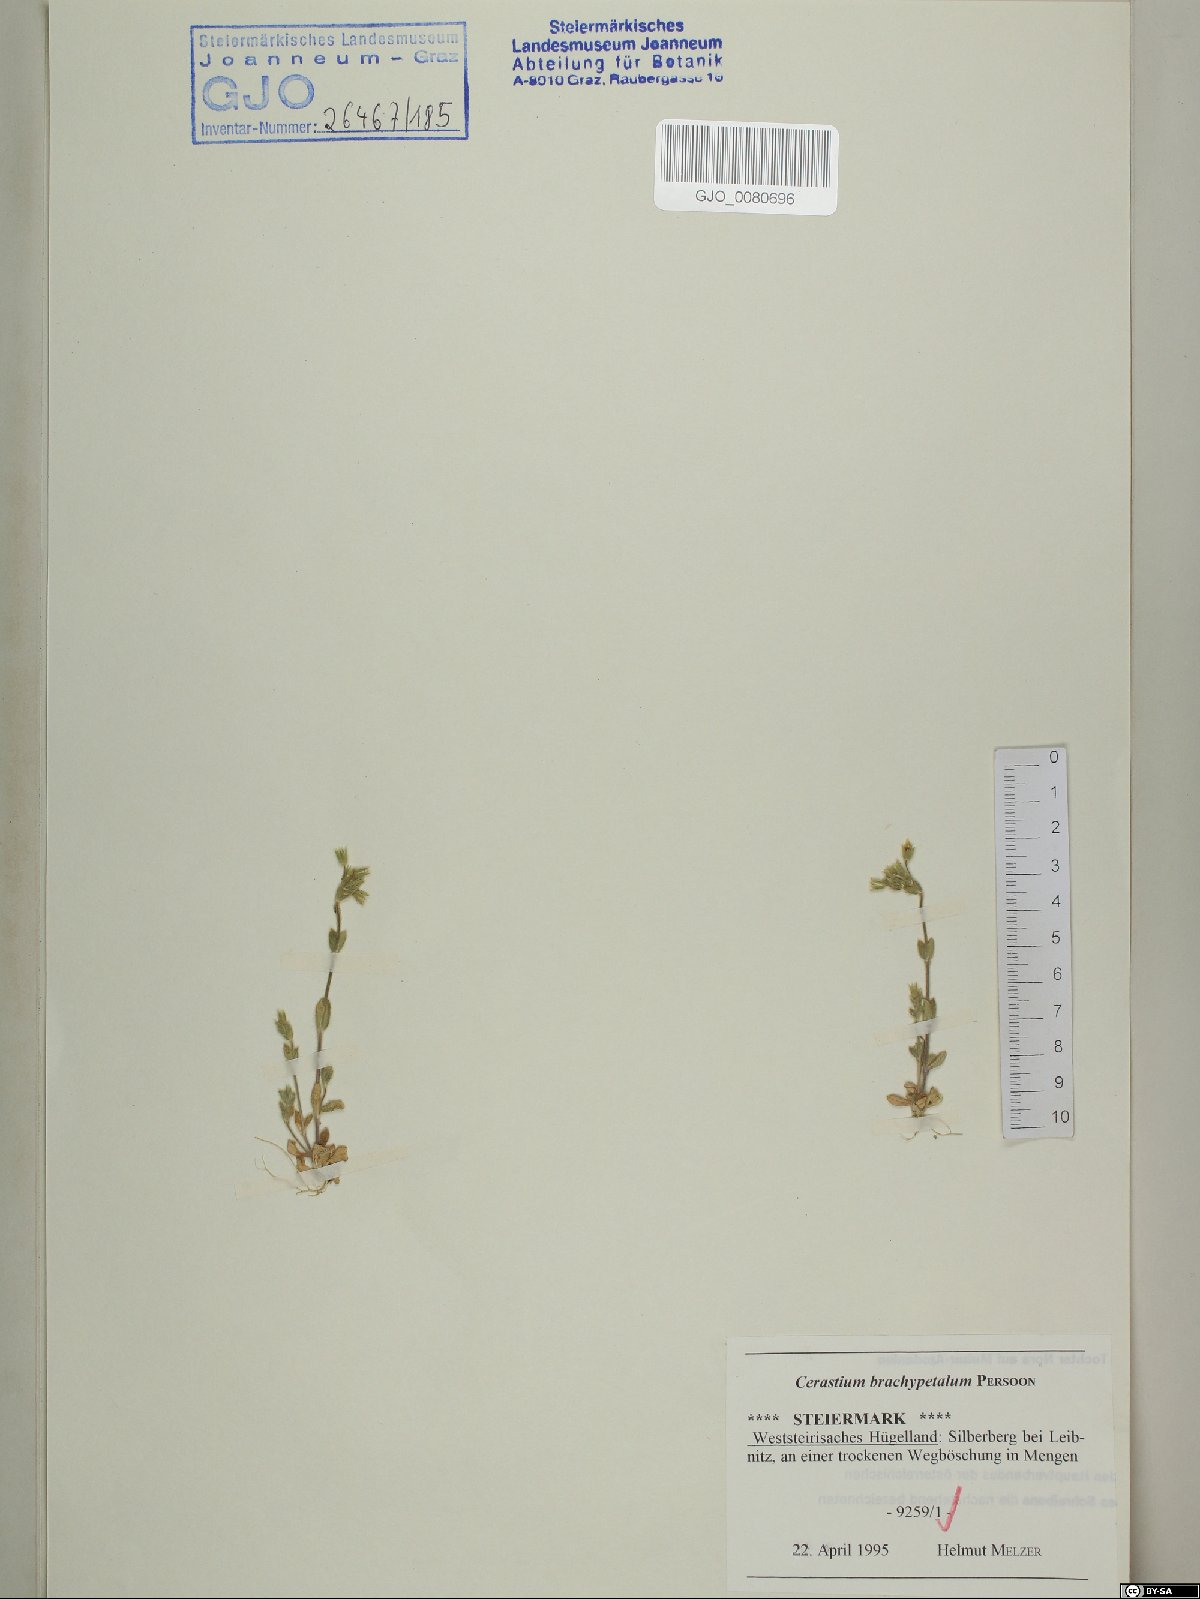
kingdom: Plantae
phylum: Tracheophyta
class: Magnoliopsida
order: Caryophyllales
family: Caryophyllaceae
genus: Cerastium
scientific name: Cerastium brachypetalum
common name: Grey mouse-ear
